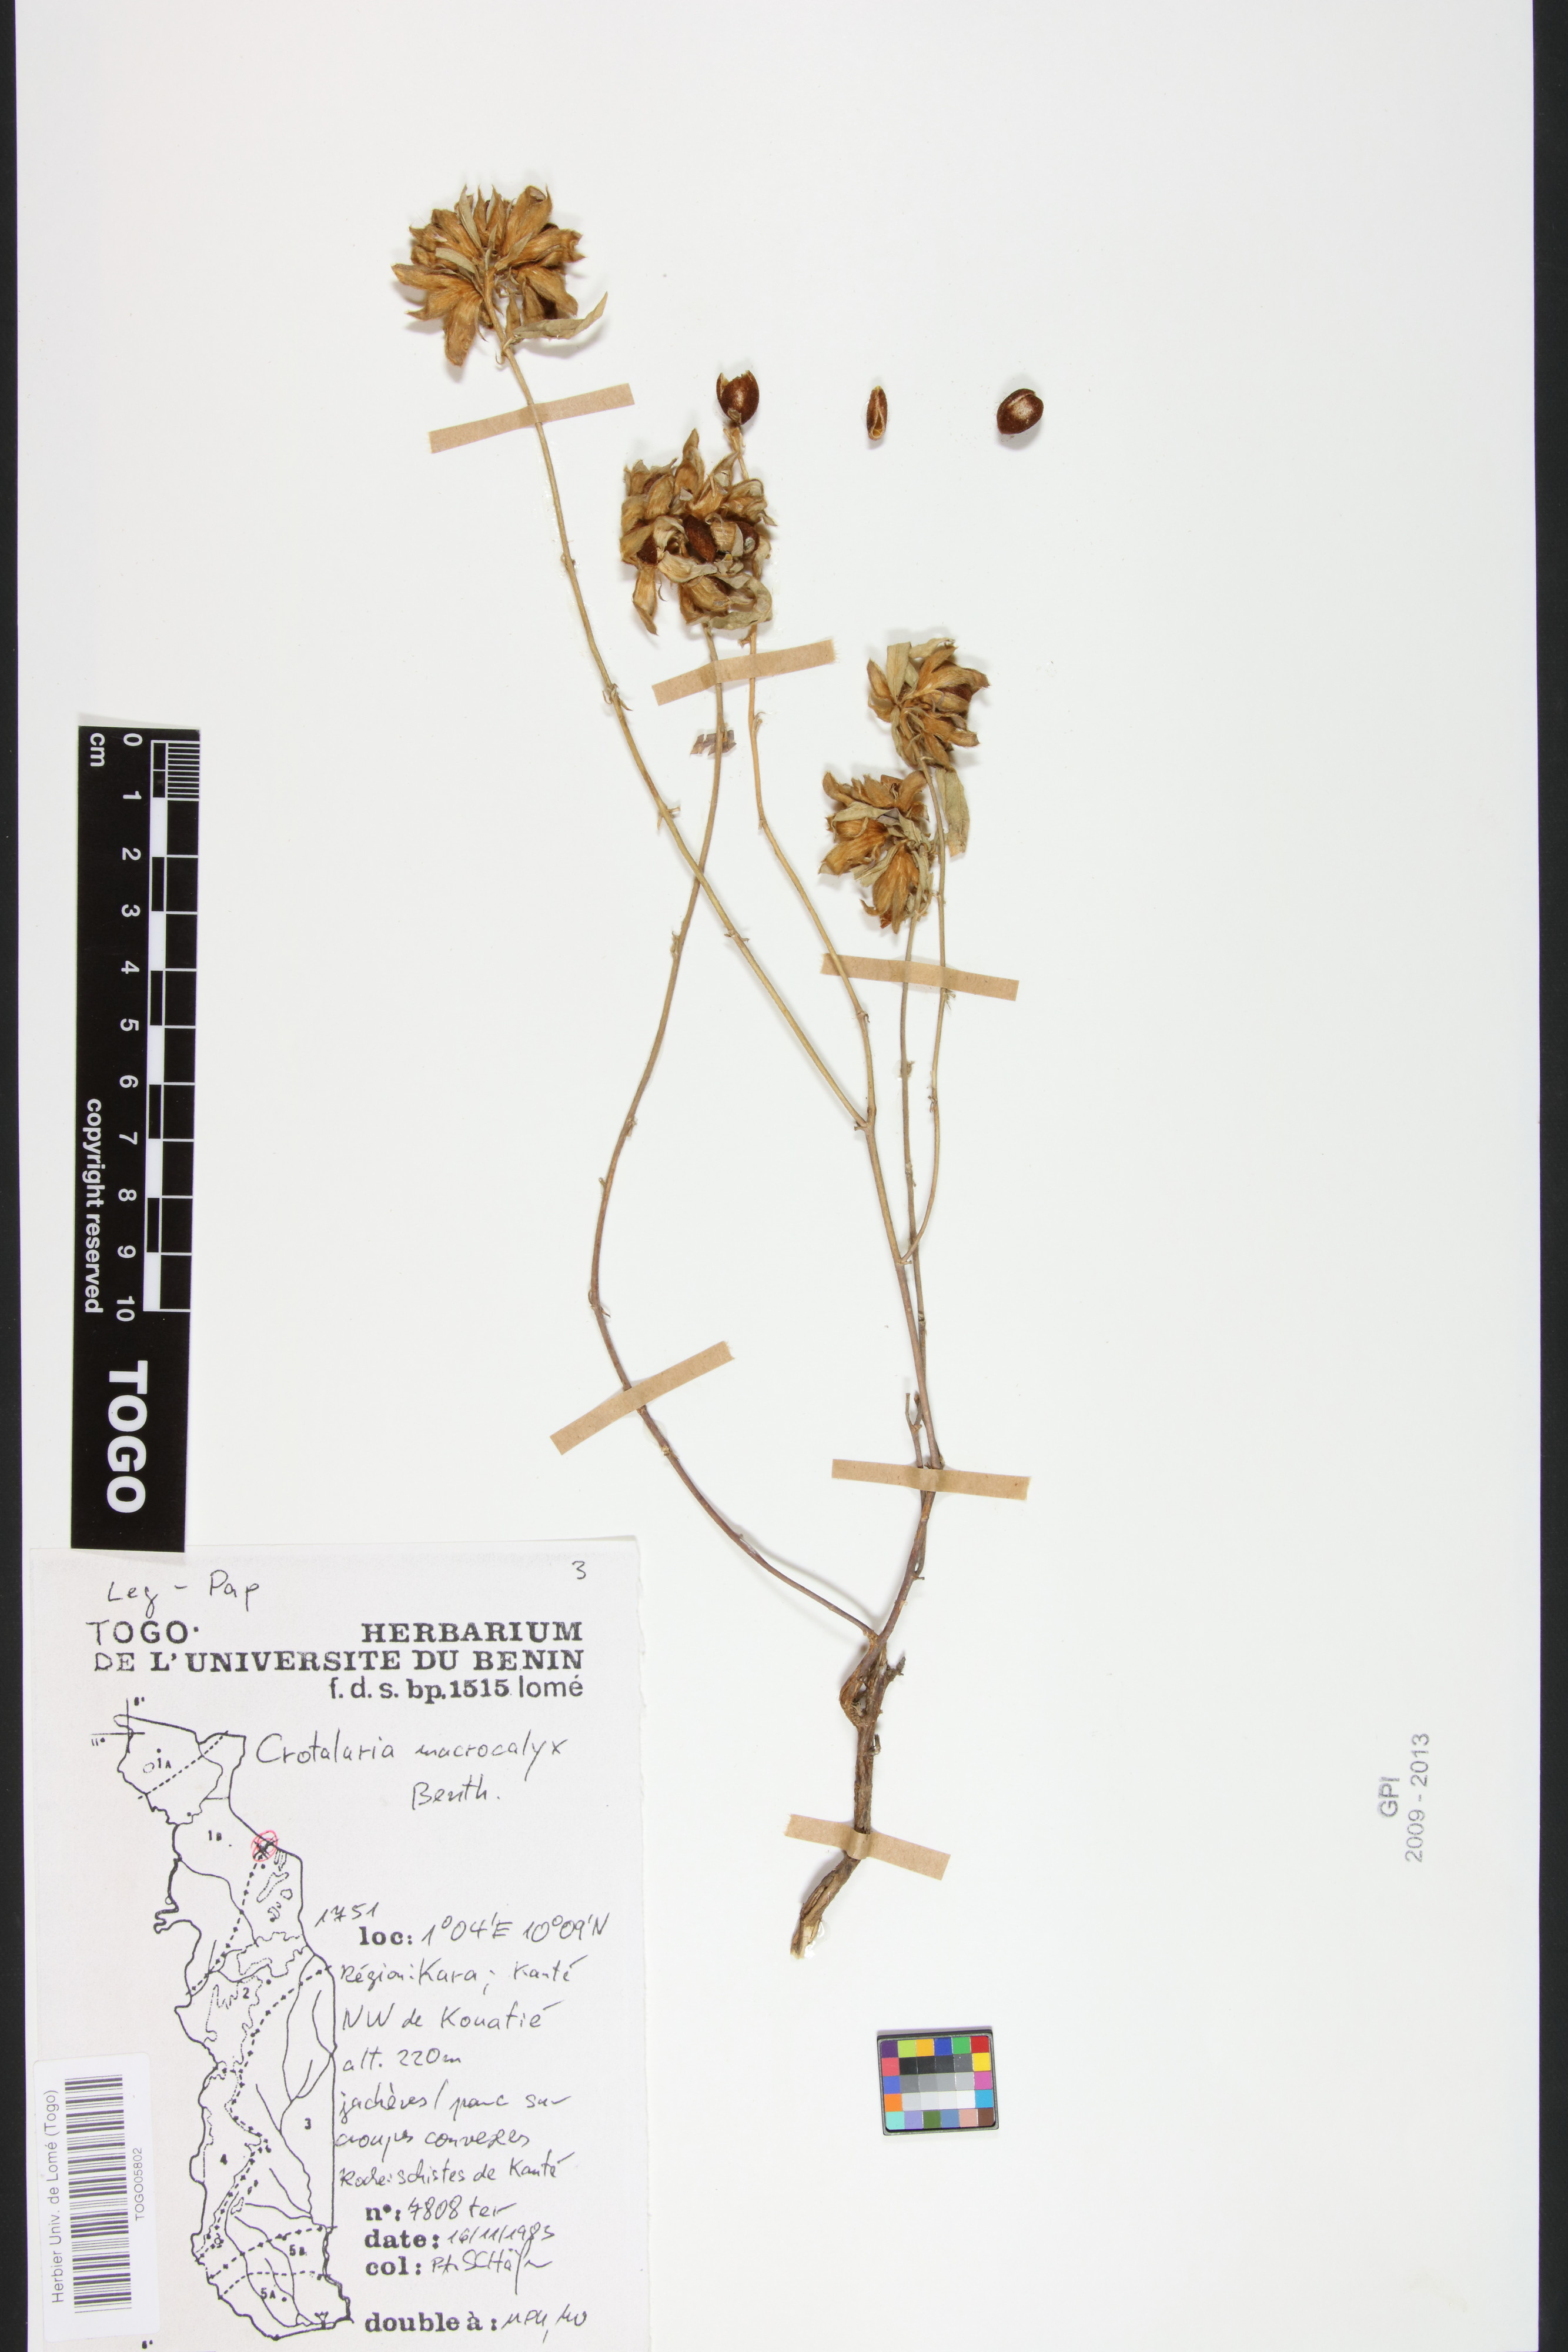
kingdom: Plantae
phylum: Tracheophyta
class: Magnoliopsida
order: Fabales
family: Fabaceae
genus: Crotalaria
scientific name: Crotalaria macrocalyx
